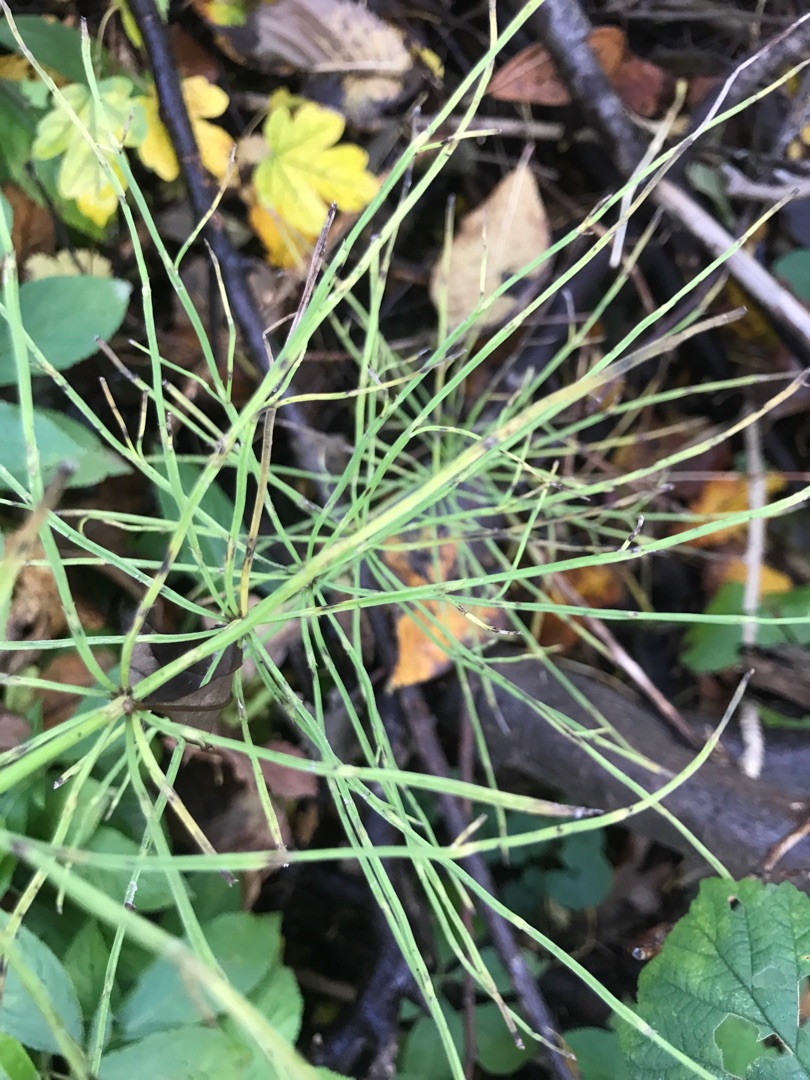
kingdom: Plantae
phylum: Tracheophyta
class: Polypodiopsida
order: Equisetales
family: Equisetaceae
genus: Equisetum
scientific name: Equisetum arvense
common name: Ager-padderok
